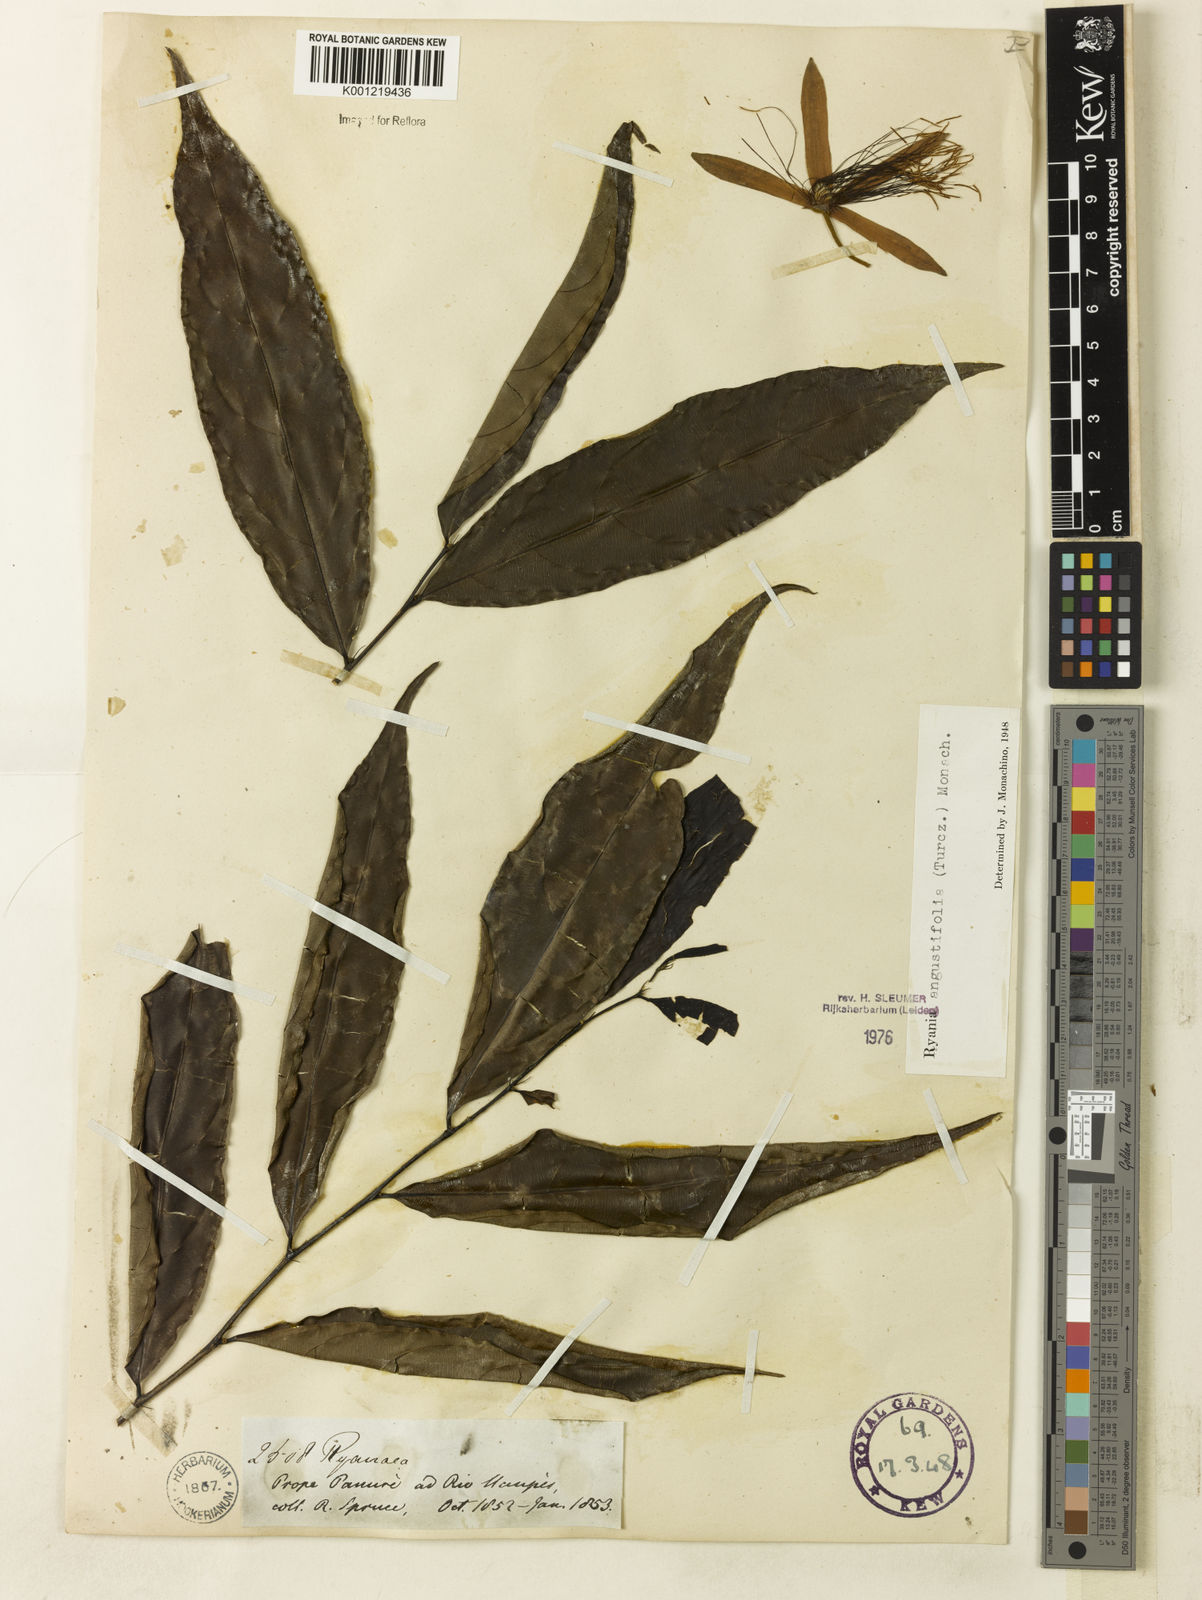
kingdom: Plantae
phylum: Tracheophyta
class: Magnoliopsida
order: Malpighiales
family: Salicaceae
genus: Ryania
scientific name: Ryania angustifolia
